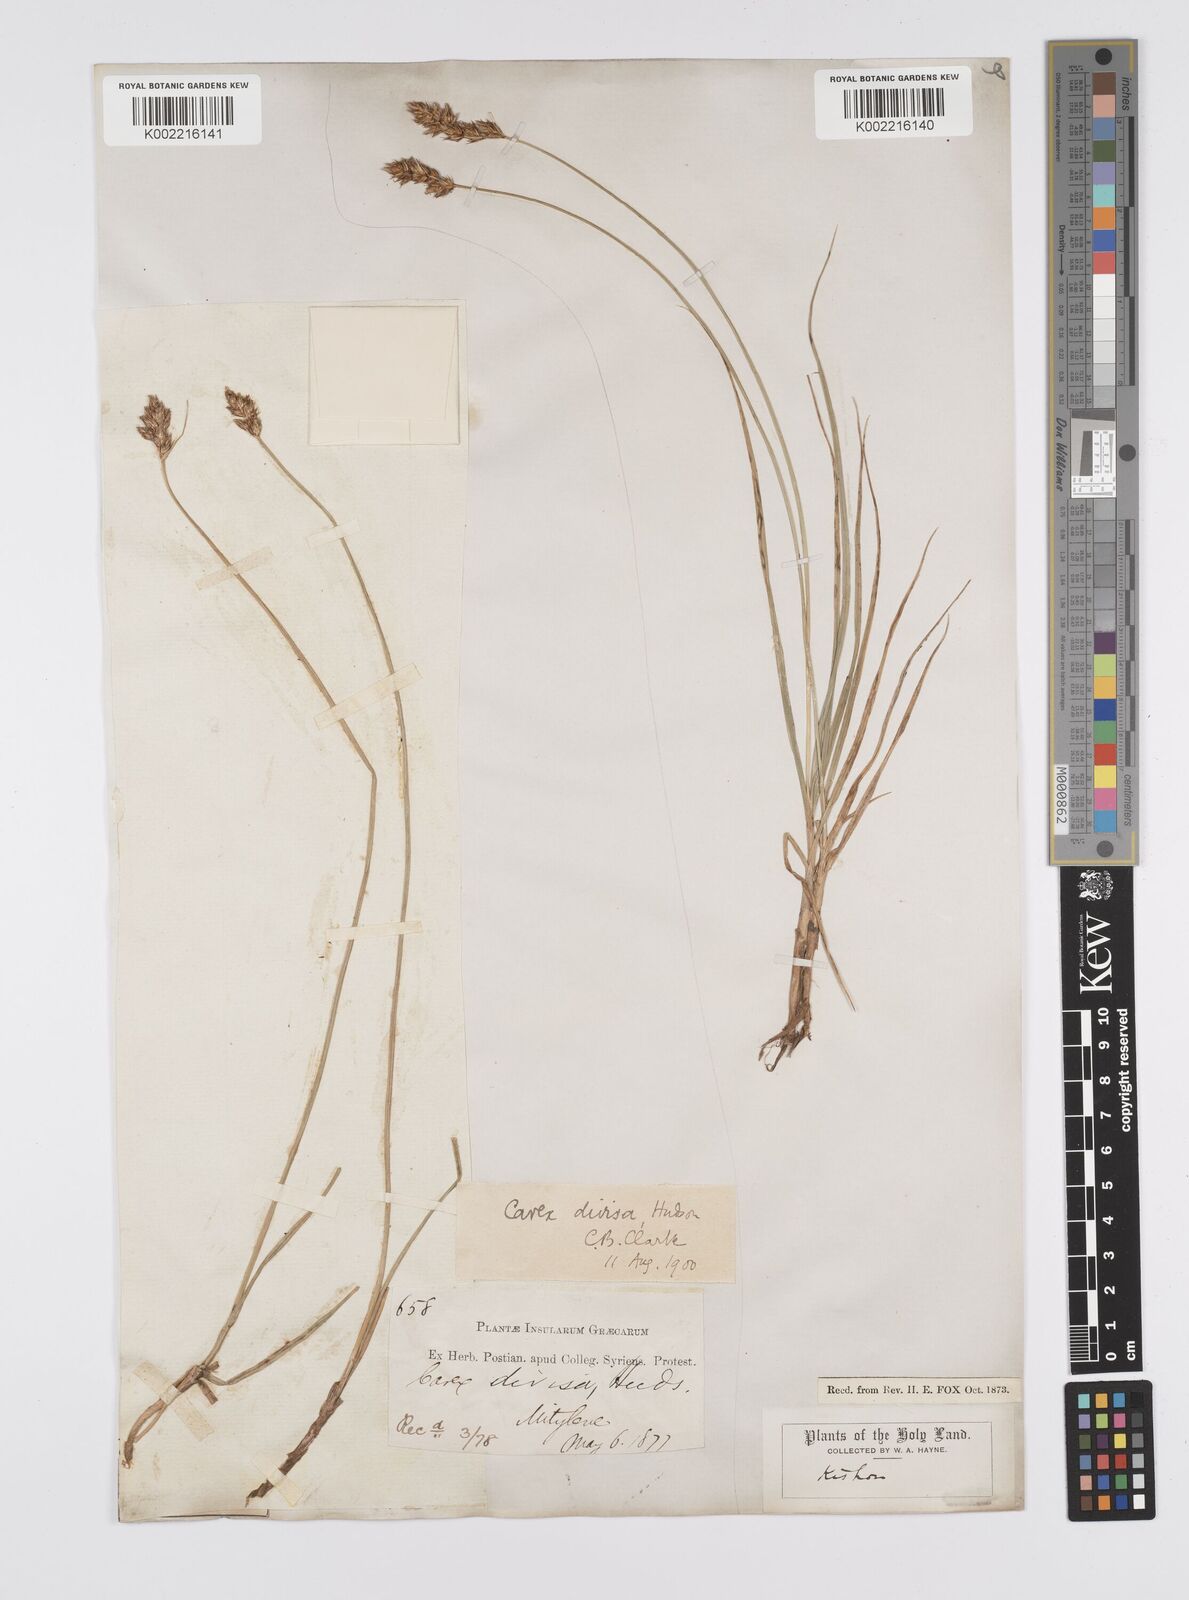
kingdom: Plantae
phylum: Tracheophyta
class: Liliopsida
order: Poales
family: Cyperaceae
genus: Carex
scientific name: Carex divisa
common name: Divided sedge
